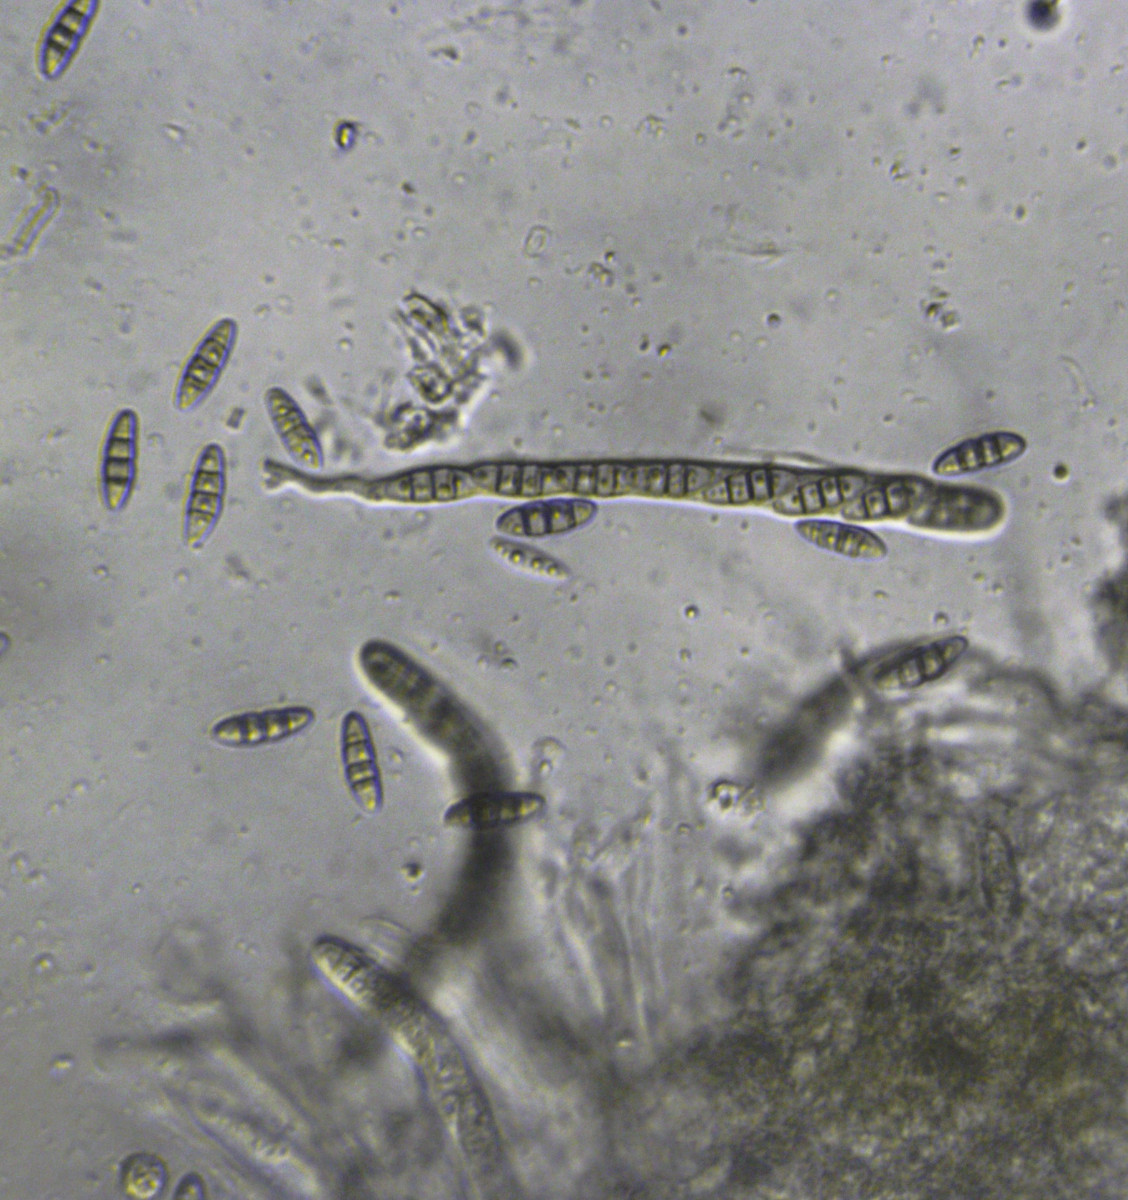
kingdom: Fungi
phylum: Ascomycota
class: Dothideomycetes
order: Pleosporales
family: Melanommataceae
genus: Melanomma
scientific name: Melanomma pulvis-pyrius
